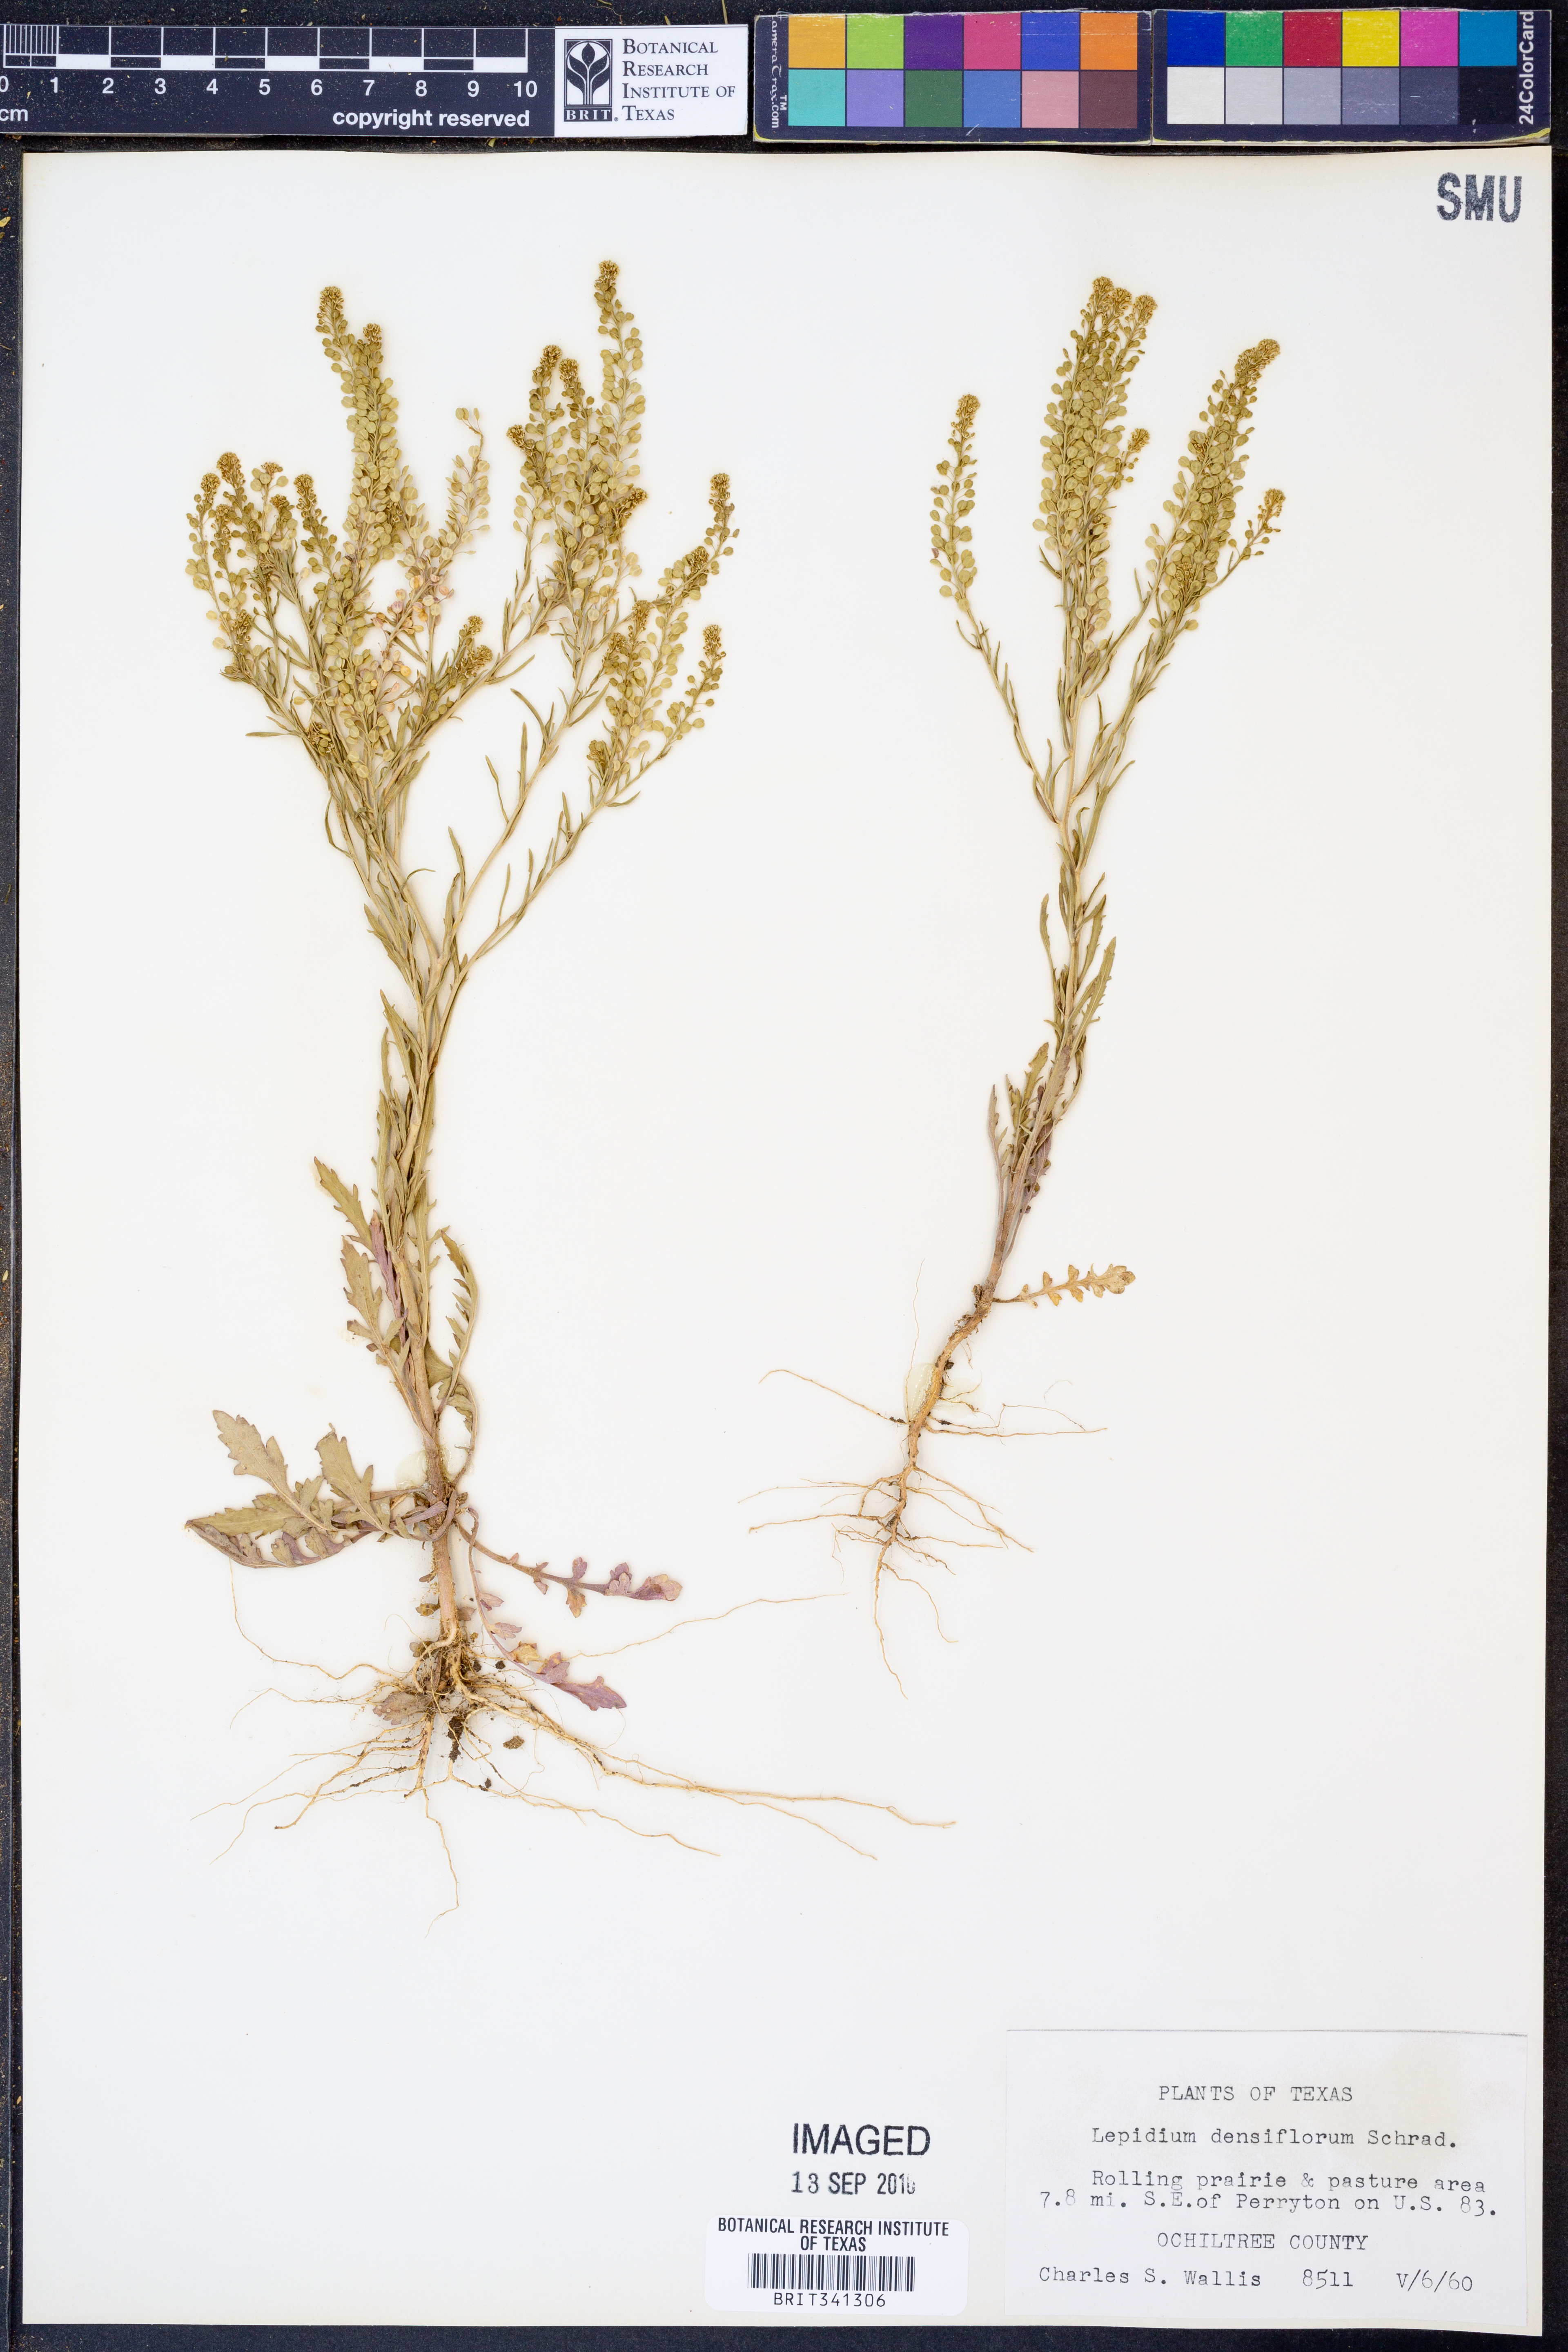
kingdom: Plantae
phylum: Tracheophyta
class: Magnoliopsida
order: Brassicales
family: Brassicaceae
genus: Lepidium
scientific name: Lepidium densiflorum
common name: Miner's pepperwort
